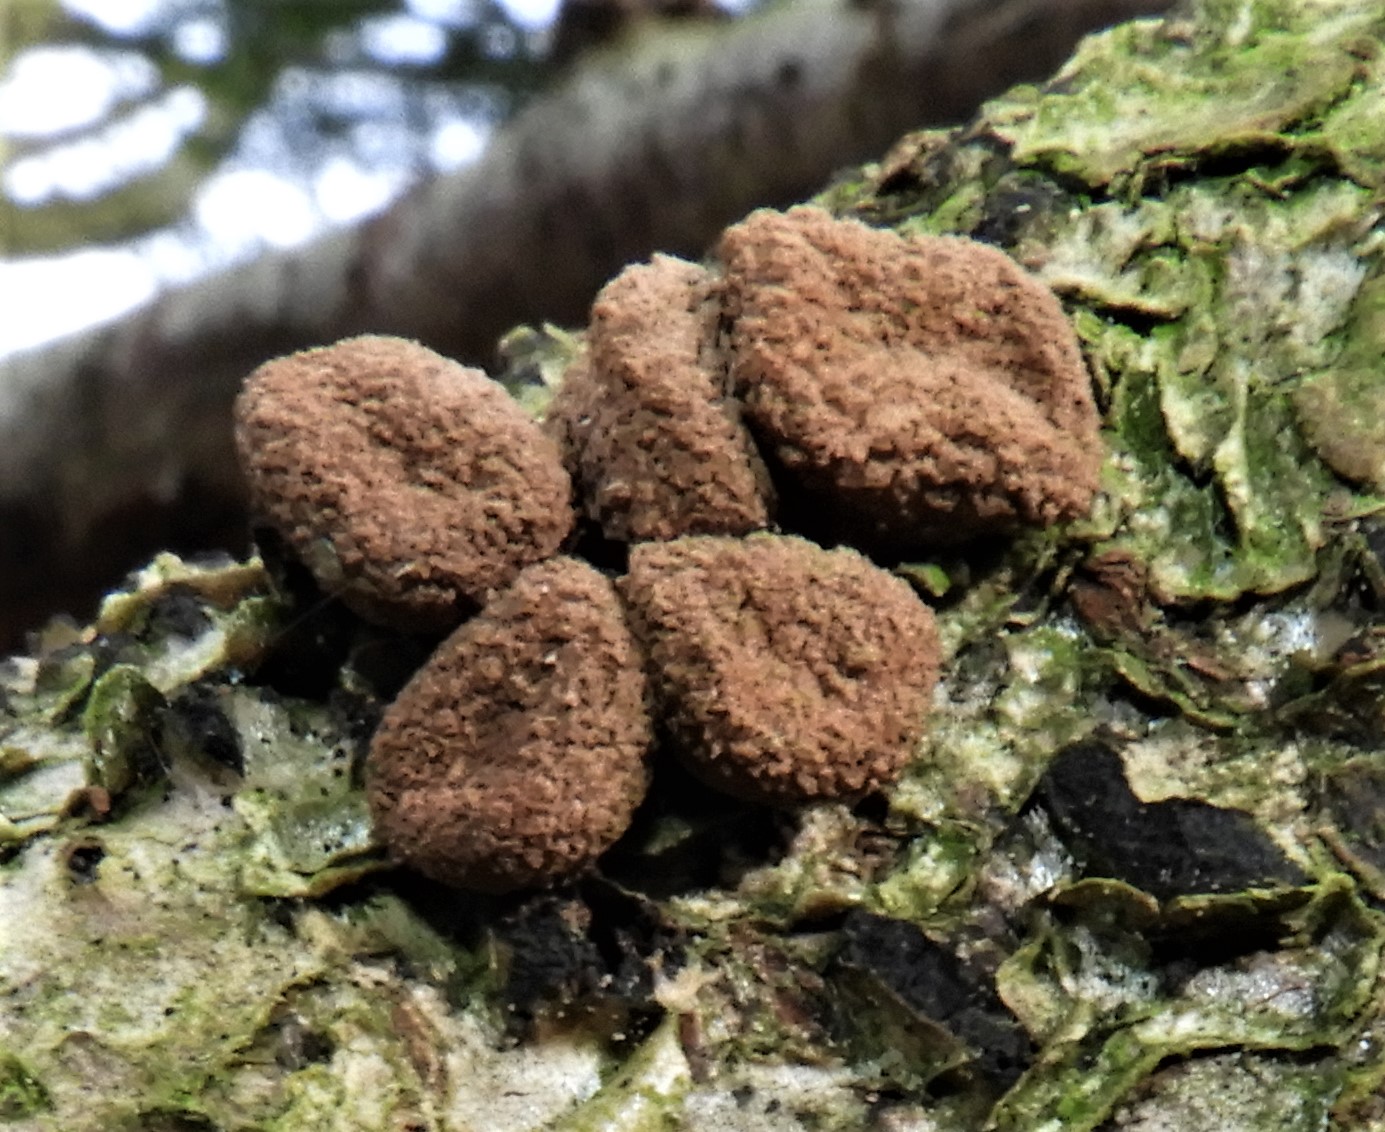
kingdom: Fungi
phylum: Ascomycota
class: Leotiomycetes
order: Helotiales
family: Cenangiaceae
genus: Encoelia
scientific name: Encoelia furfuracea
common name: hassel-læderskive
